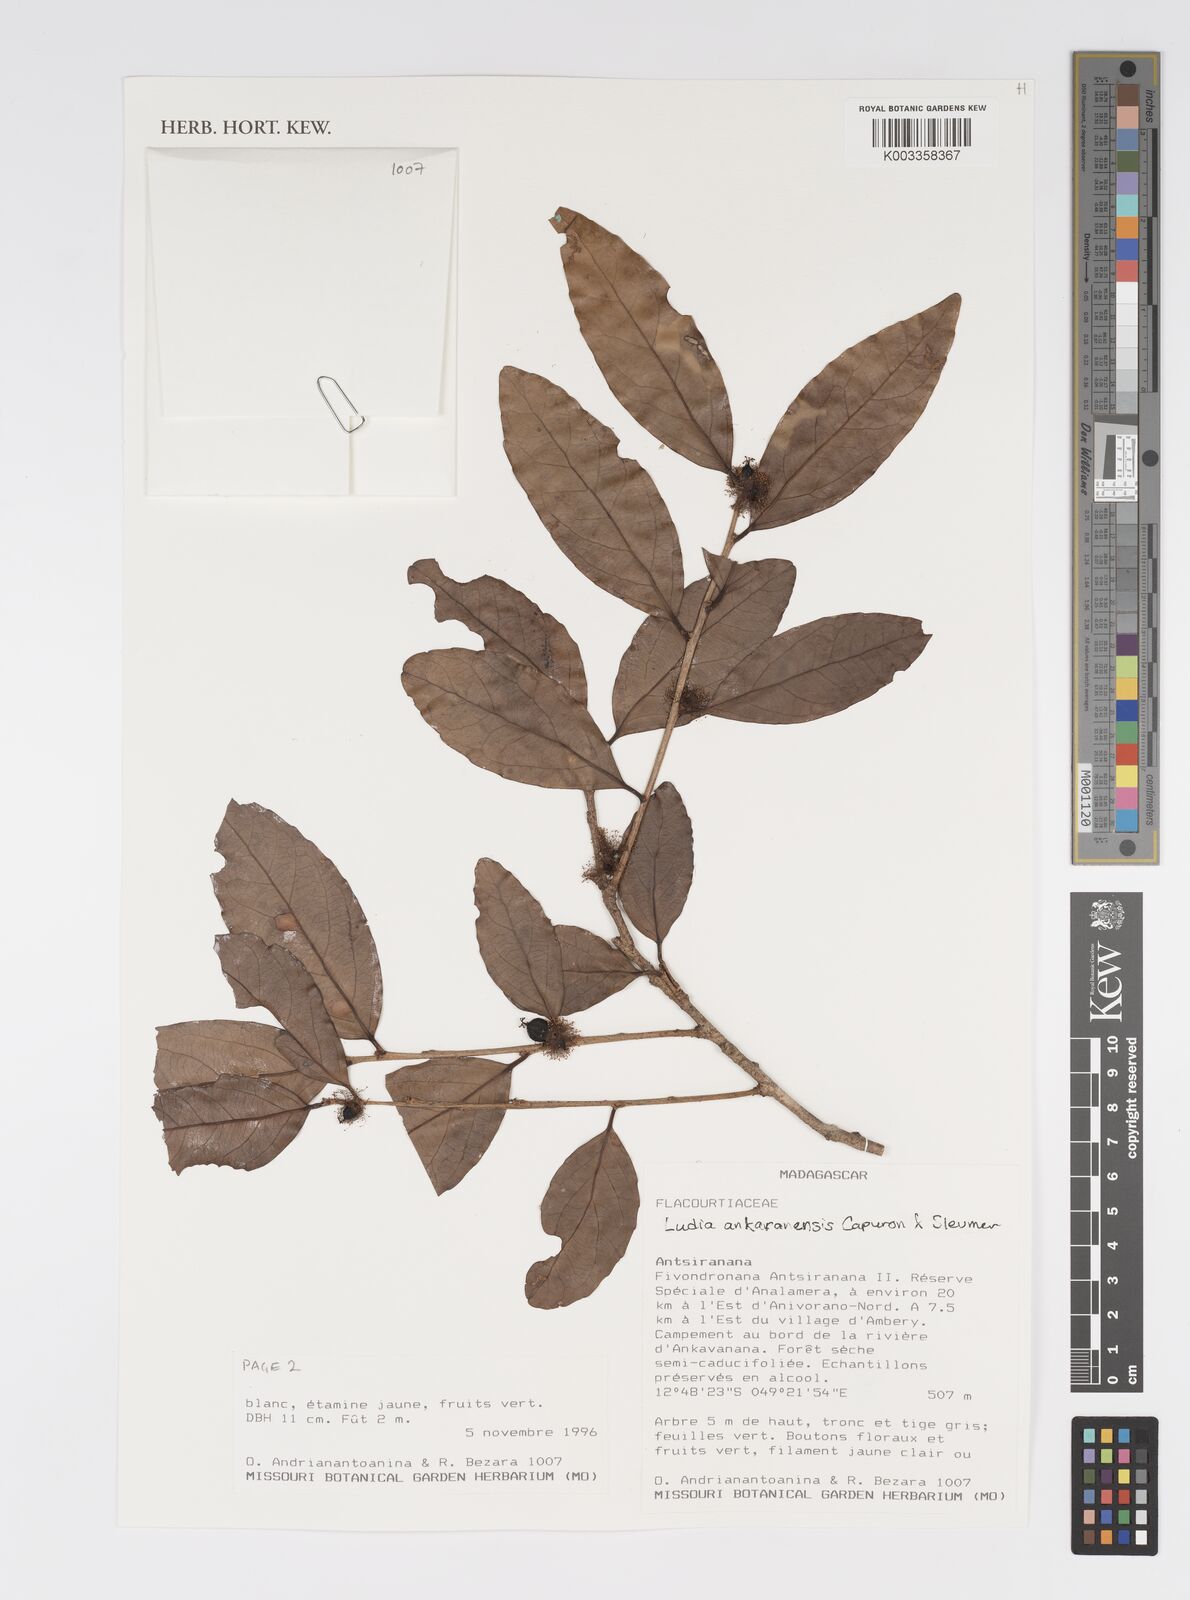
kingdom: Plantae
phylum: Tracheophyta
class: Magnoliopsida
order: Malpighiales
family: Salicaceae
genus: Ludia
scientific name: Ludia ankaranensis
